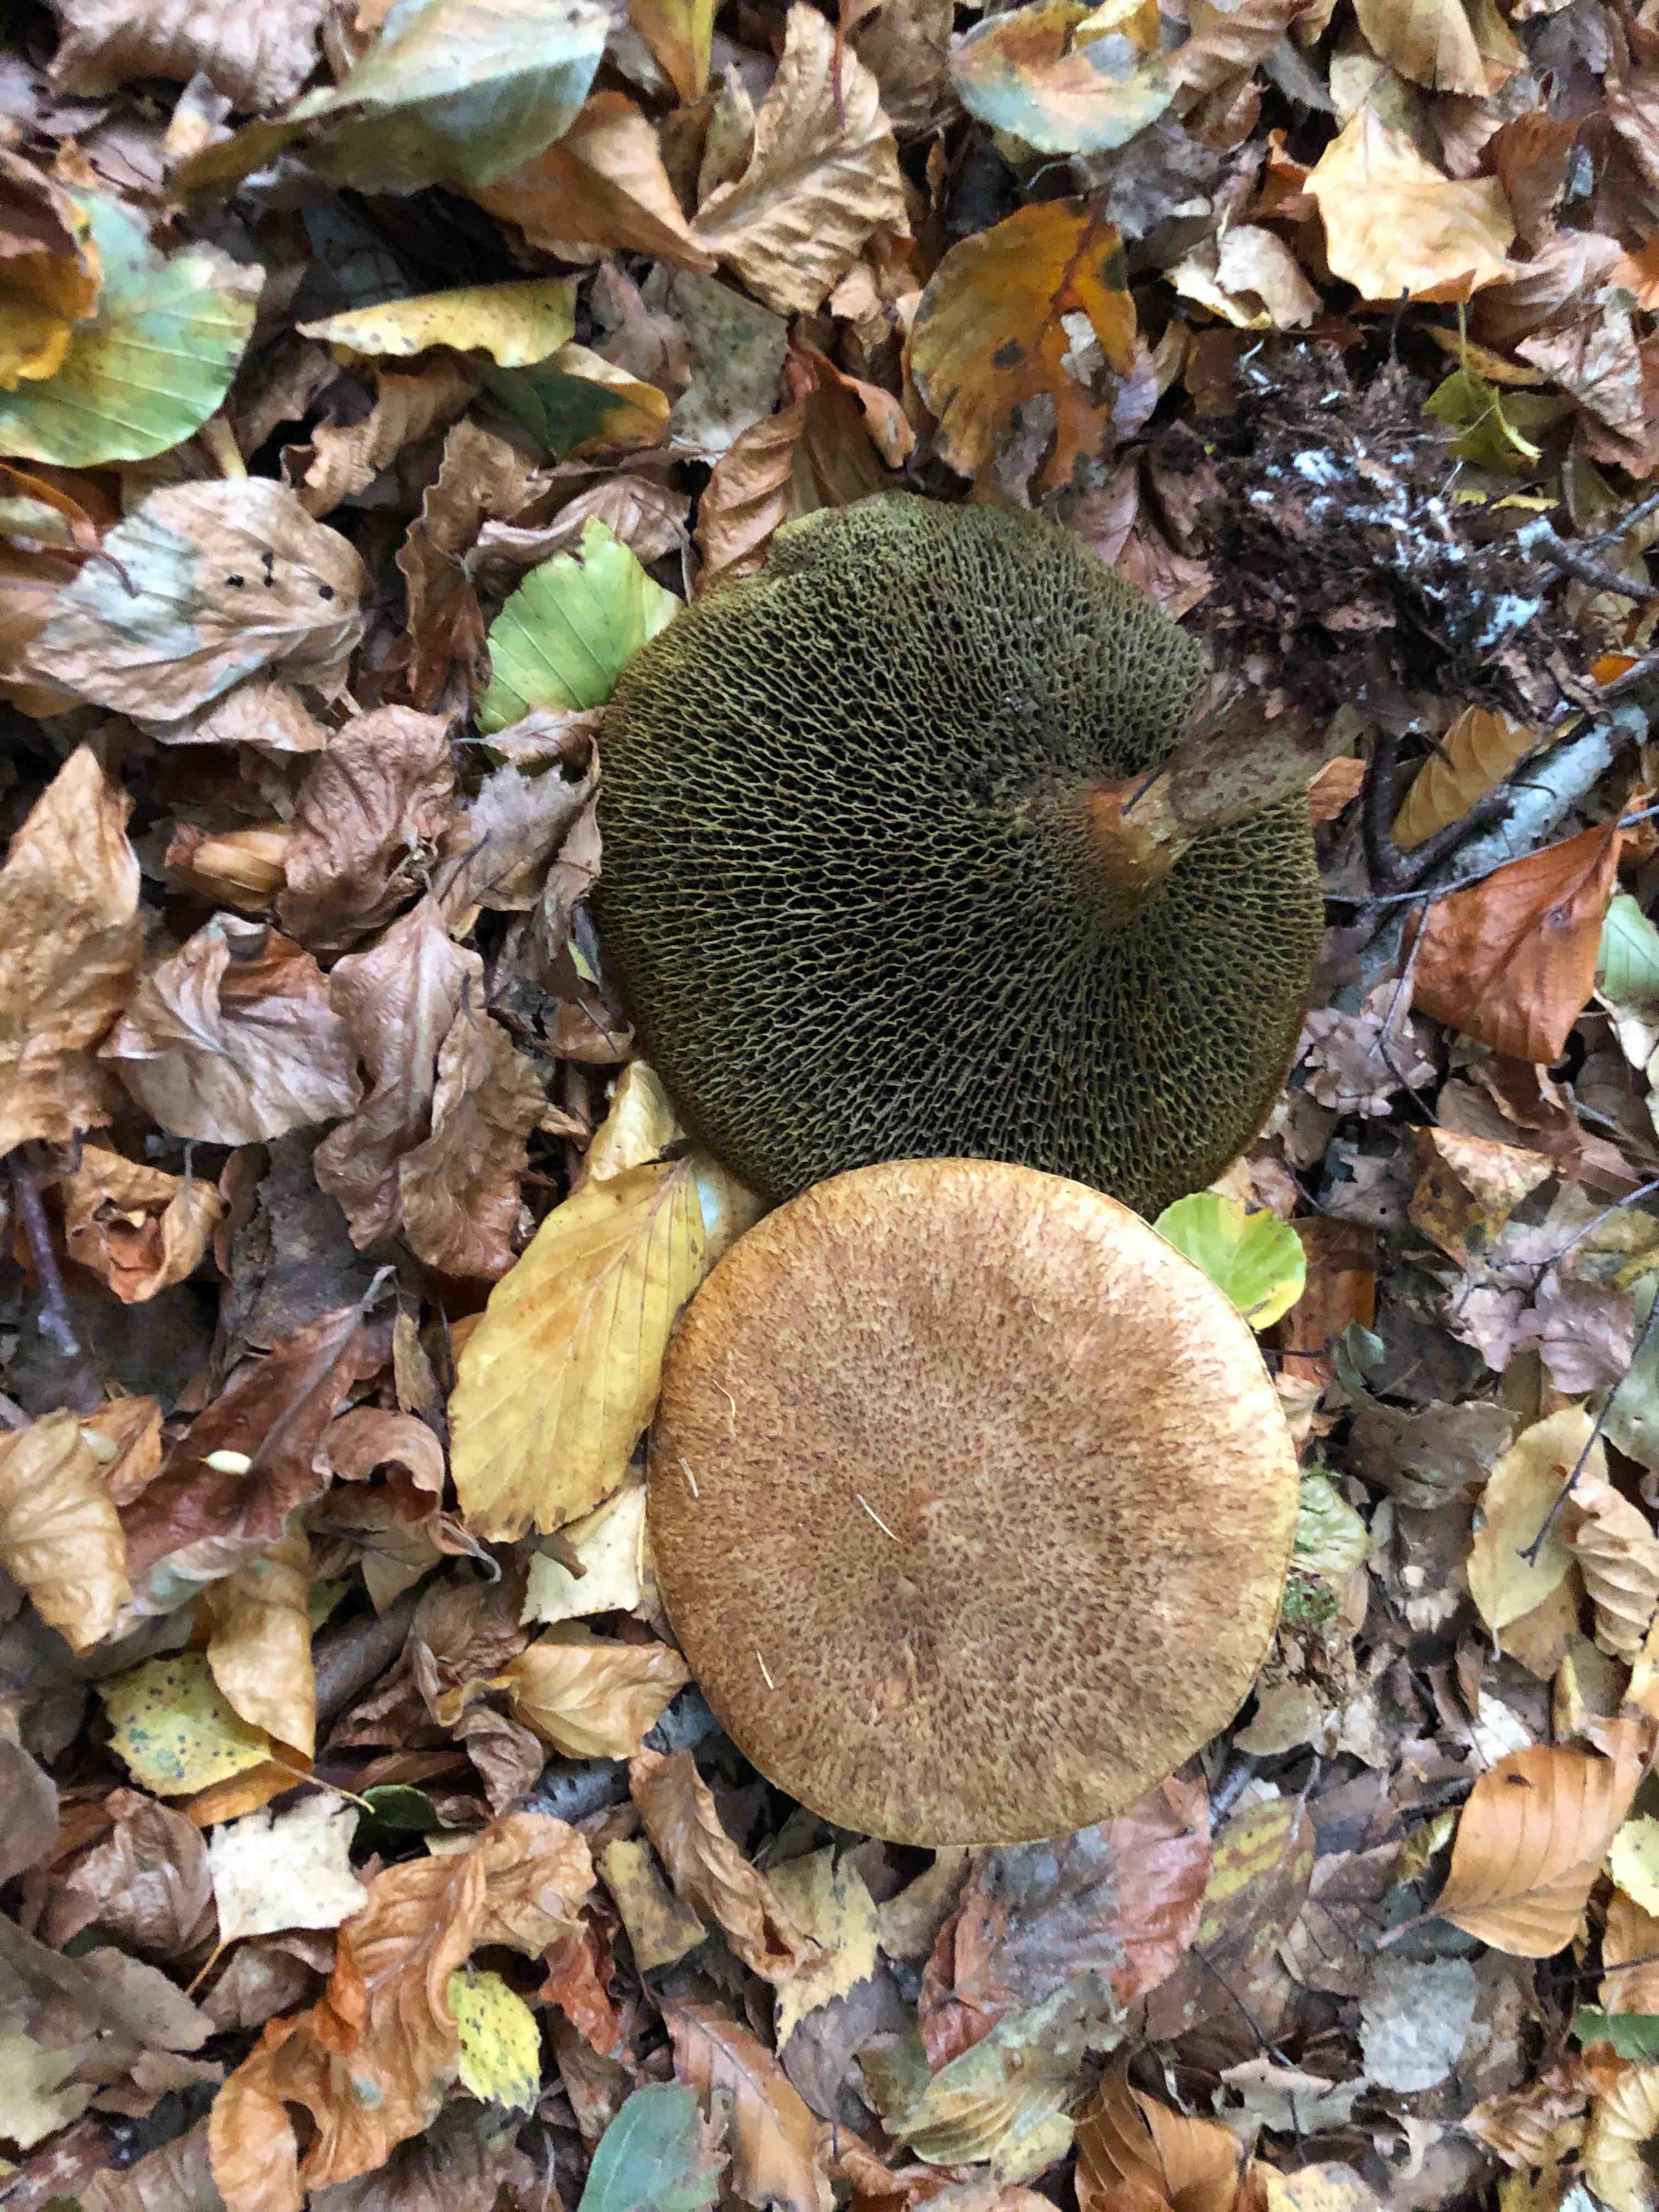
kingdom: Fungi
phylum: Basidiomycota
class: Agaricomycetes
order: Boletales
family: Suillaceae
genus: Suillus
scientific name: Suillus cavipes
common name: hulstokket slimrørhat
